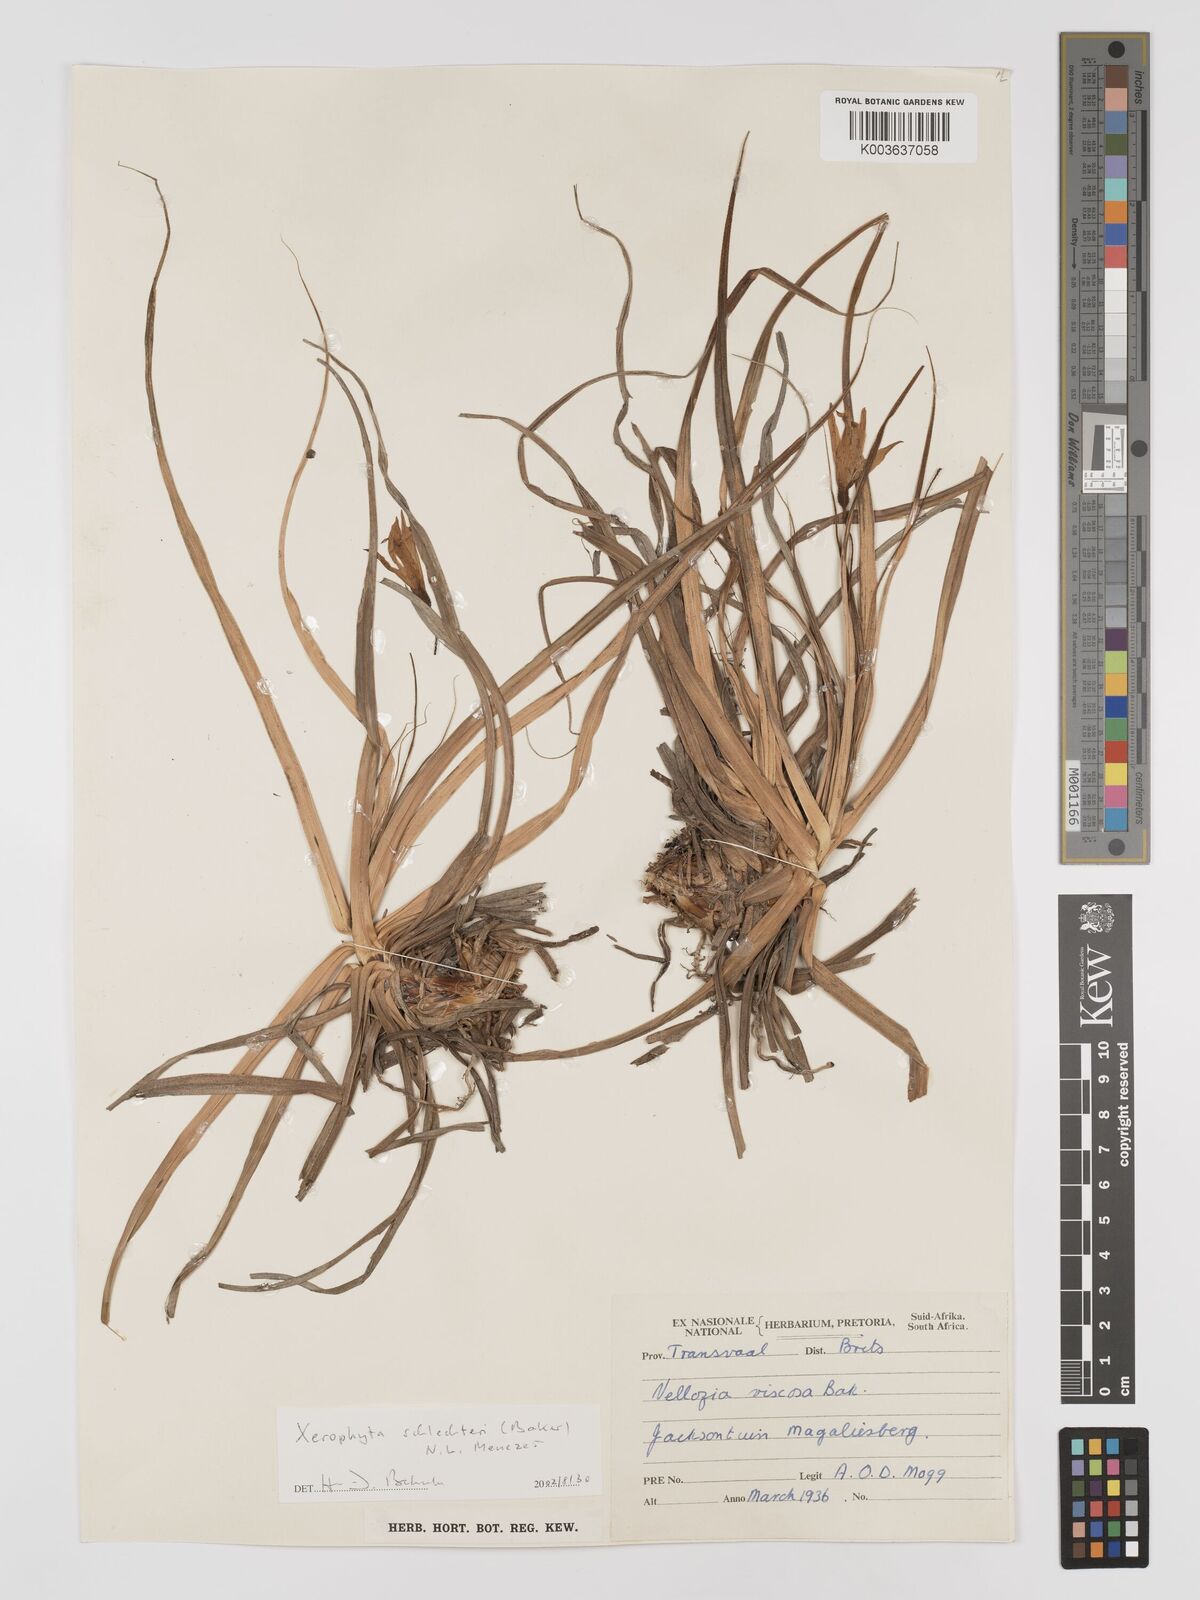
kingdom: Plantae
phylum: Tracheophyta
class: Liliopsida
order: Pandanales
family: Velloziaceae
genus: Xerophyta
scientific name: Xerophyta schlechteri
